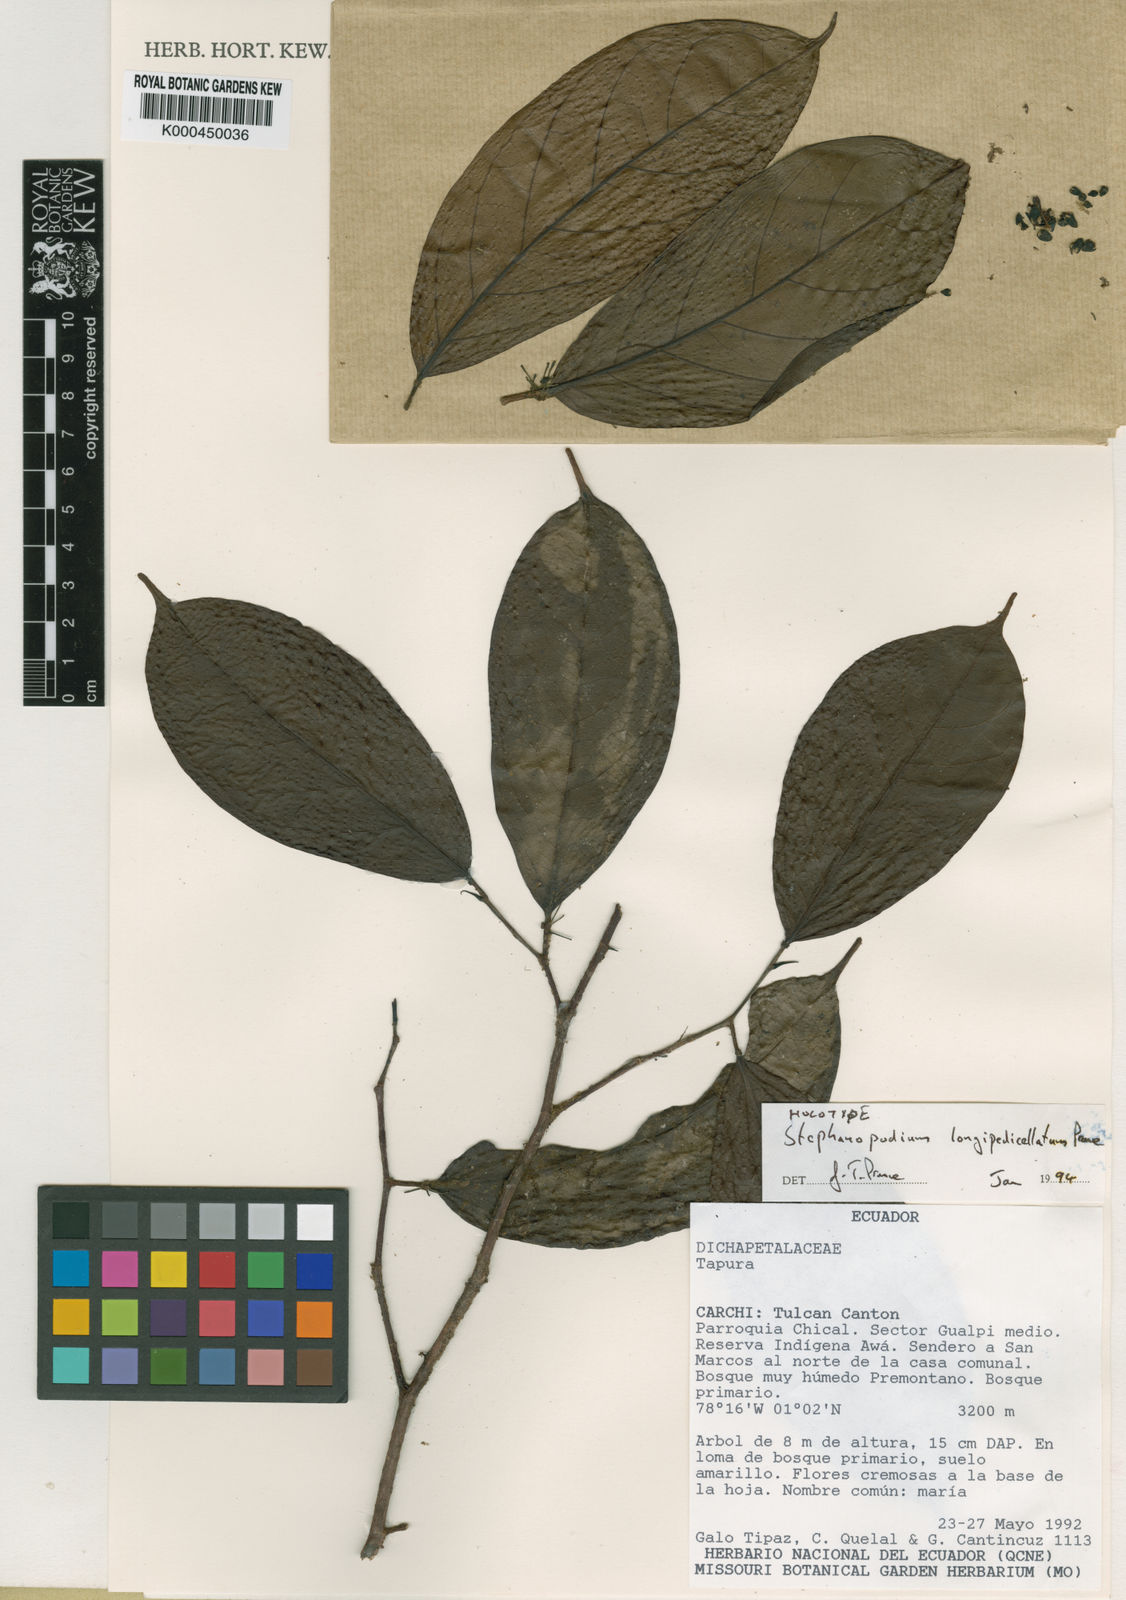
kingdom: Plantae
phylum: Tracheophyta
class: Magnoliopsida
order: Malpighiales
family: Dichapetalaceae
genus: Stephanopodium
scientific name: Stephanopodium longipedicellatum
